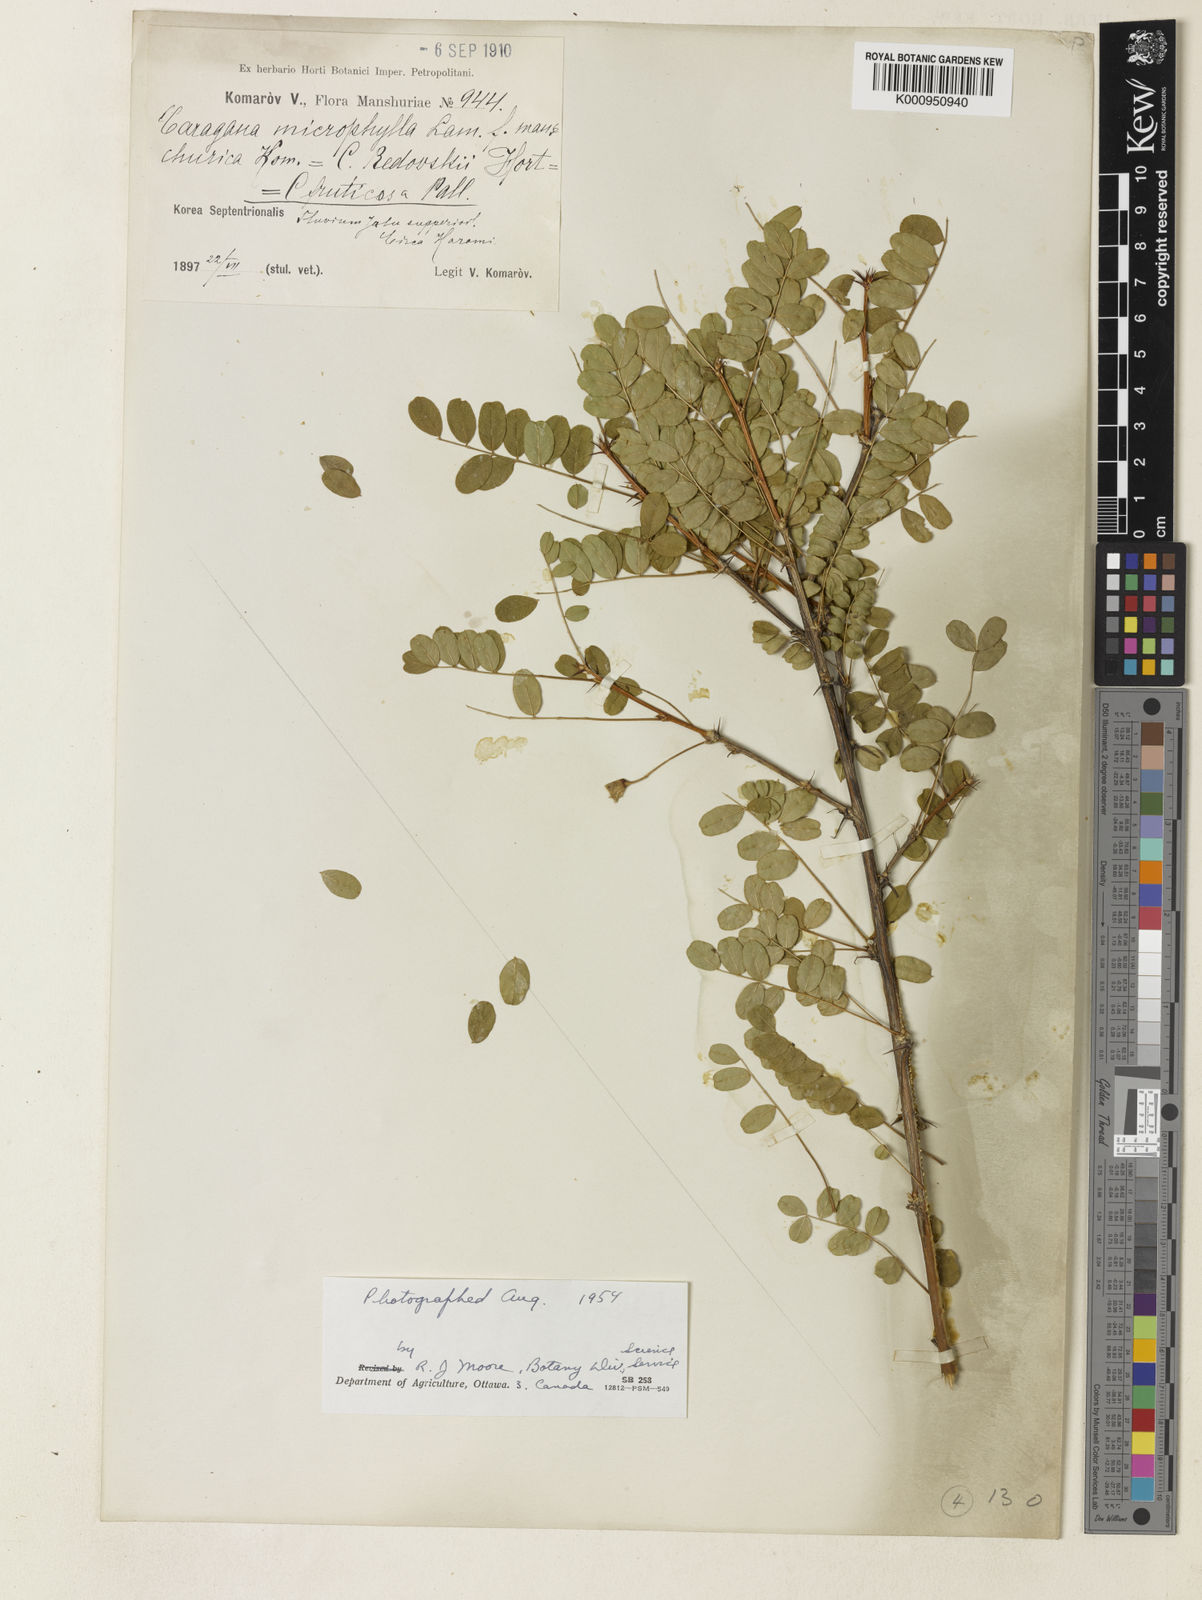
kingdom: Plantae
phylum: Tracheophyta
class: Magnoliopsida
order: Fabales
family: Fabaceae
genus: Caragana
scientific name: Caragana microphylla
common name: Littleleaf peashrub
